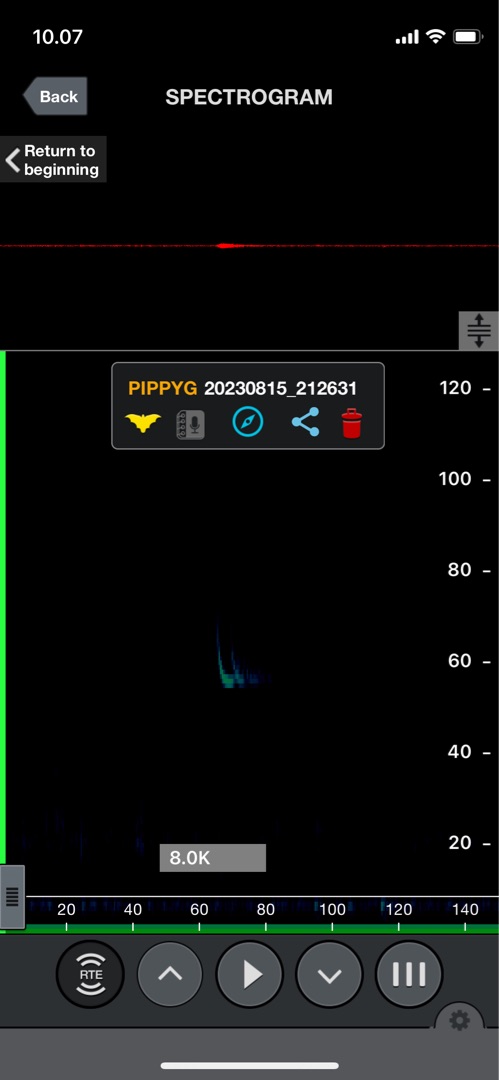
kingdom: Animalia
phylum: Chordata
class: Mammalia
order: Chiroptera
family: Vespertilionidae
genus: Pipistrellus
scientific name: Pipistrellus pygmaeus
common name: Dværgflagermus
